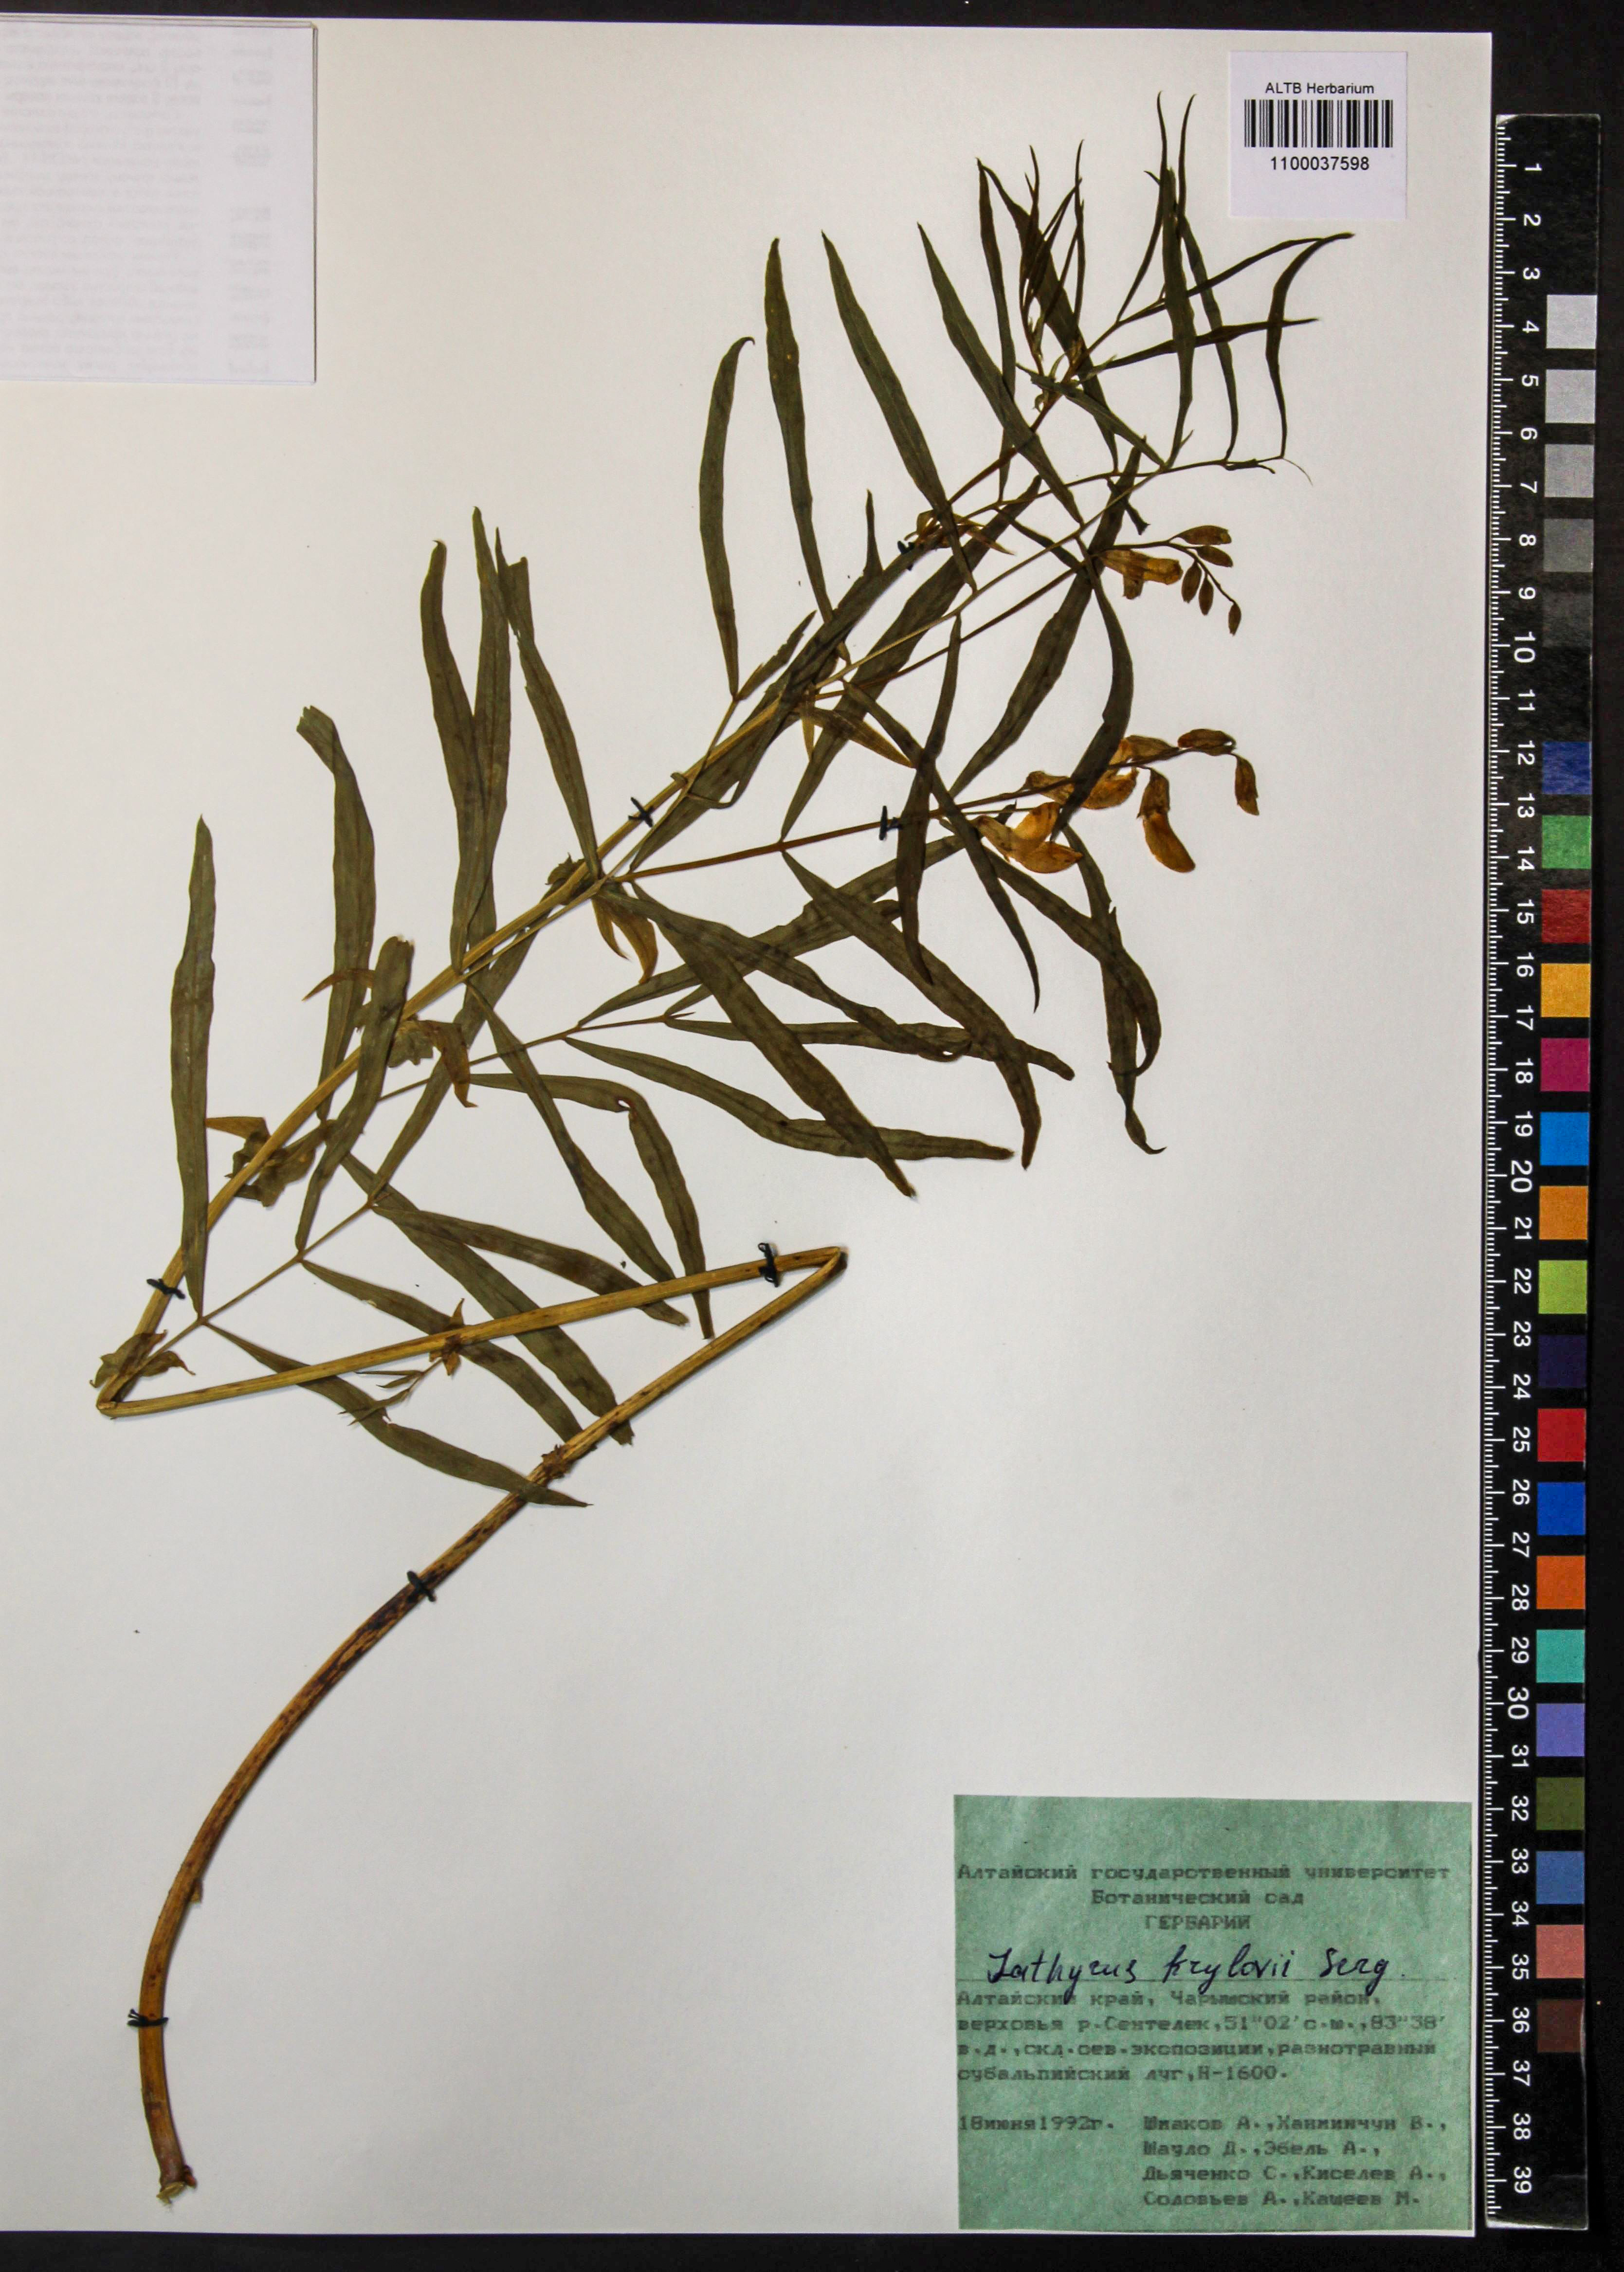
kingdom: Plantae
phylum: Tracheophyta
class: Magnoliopsida
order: Fabales
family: Fabaceae
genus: Lathyrus
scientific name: Lathyrus krylovii
